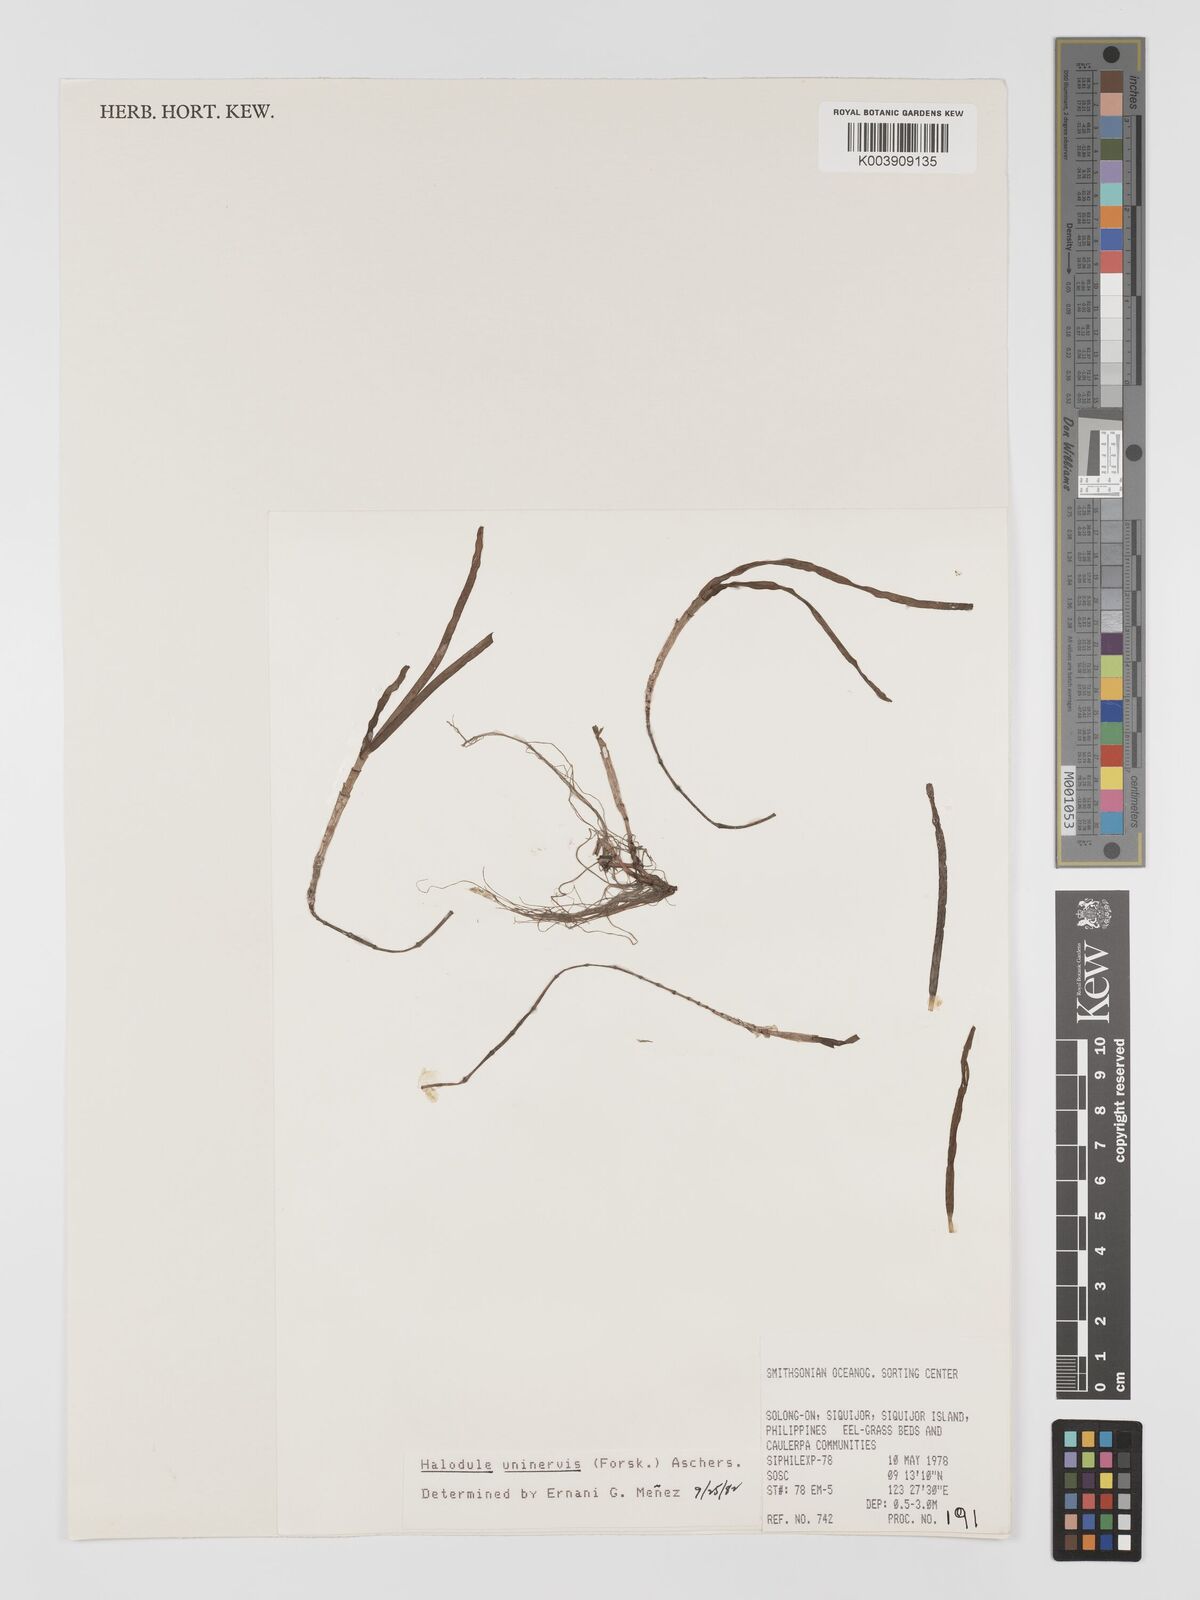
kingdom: Plantae
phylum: Tracheophyta
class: Liliopsida
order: Alismatales
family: Cymodoceaceae
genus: Halodule
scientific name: Halodule uninervis
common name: Narrowleaf seagrass
